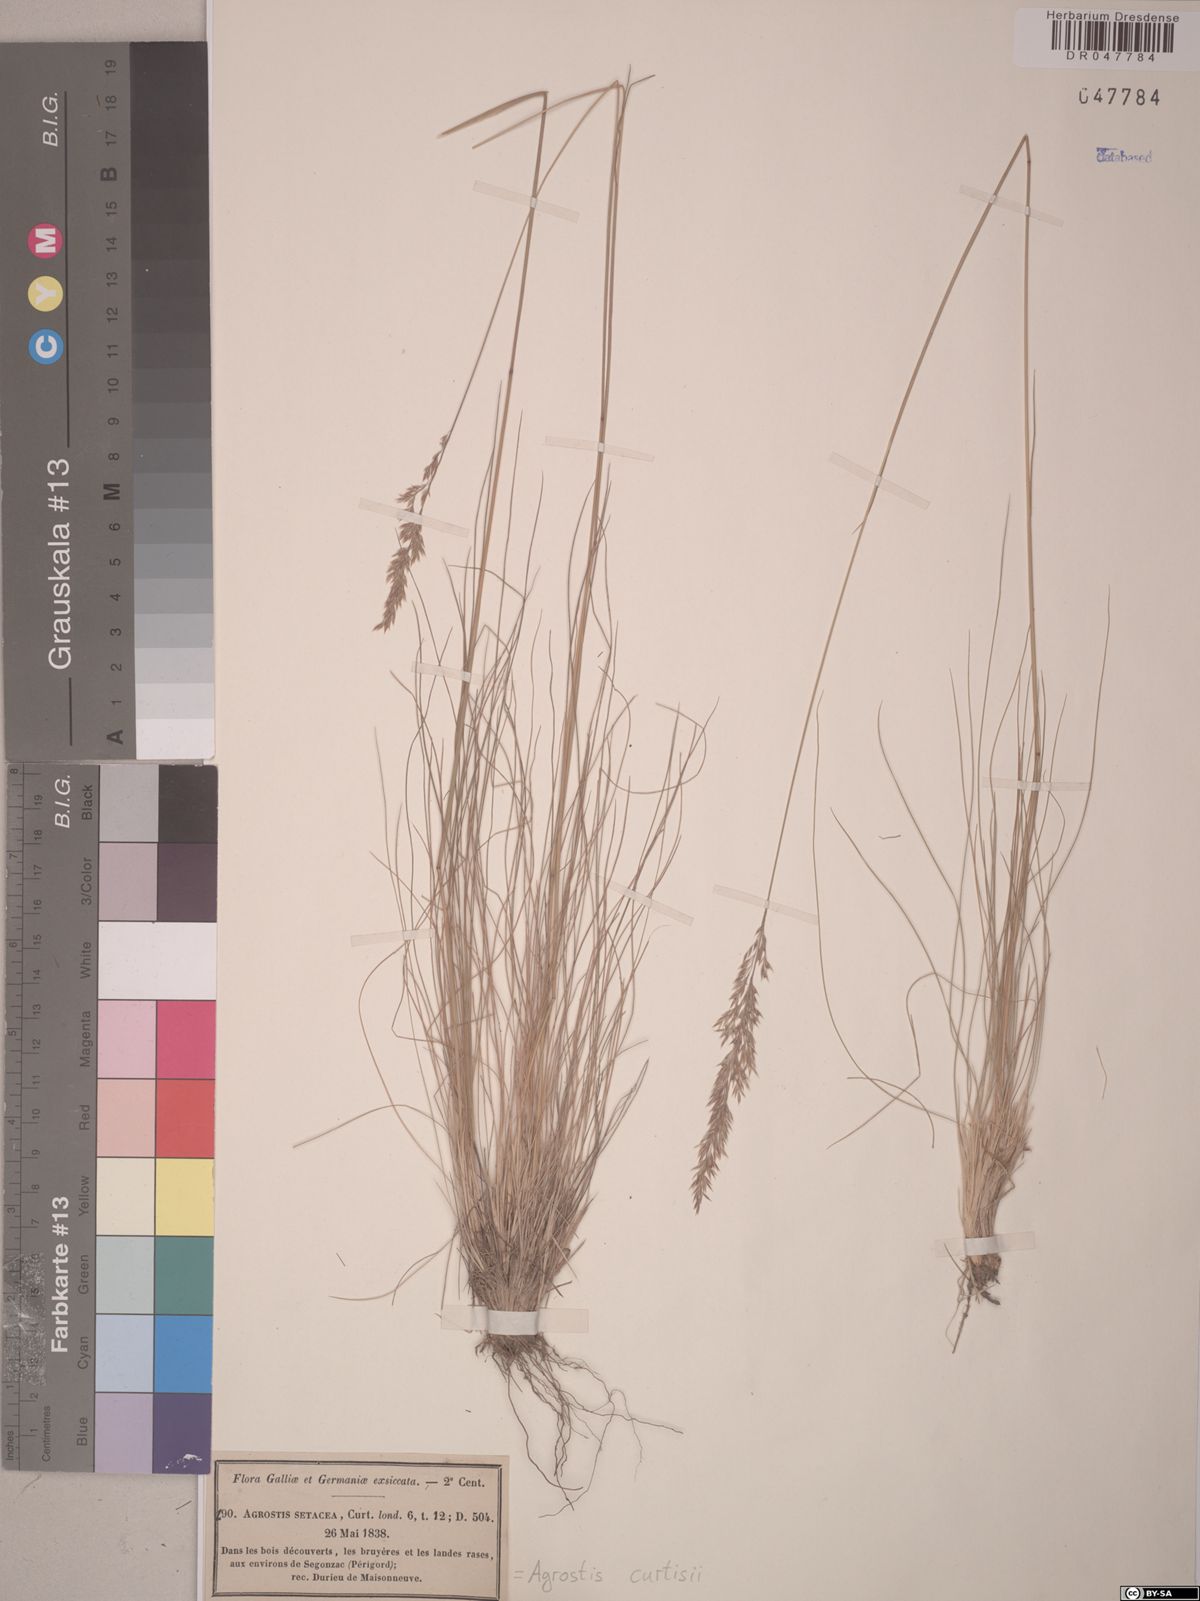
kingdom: Plantae
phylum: Tracheophyta
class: Liliopsida
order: Poales
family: Poaceae
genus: Alpagrostis
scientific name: Alpagrostis setacea
